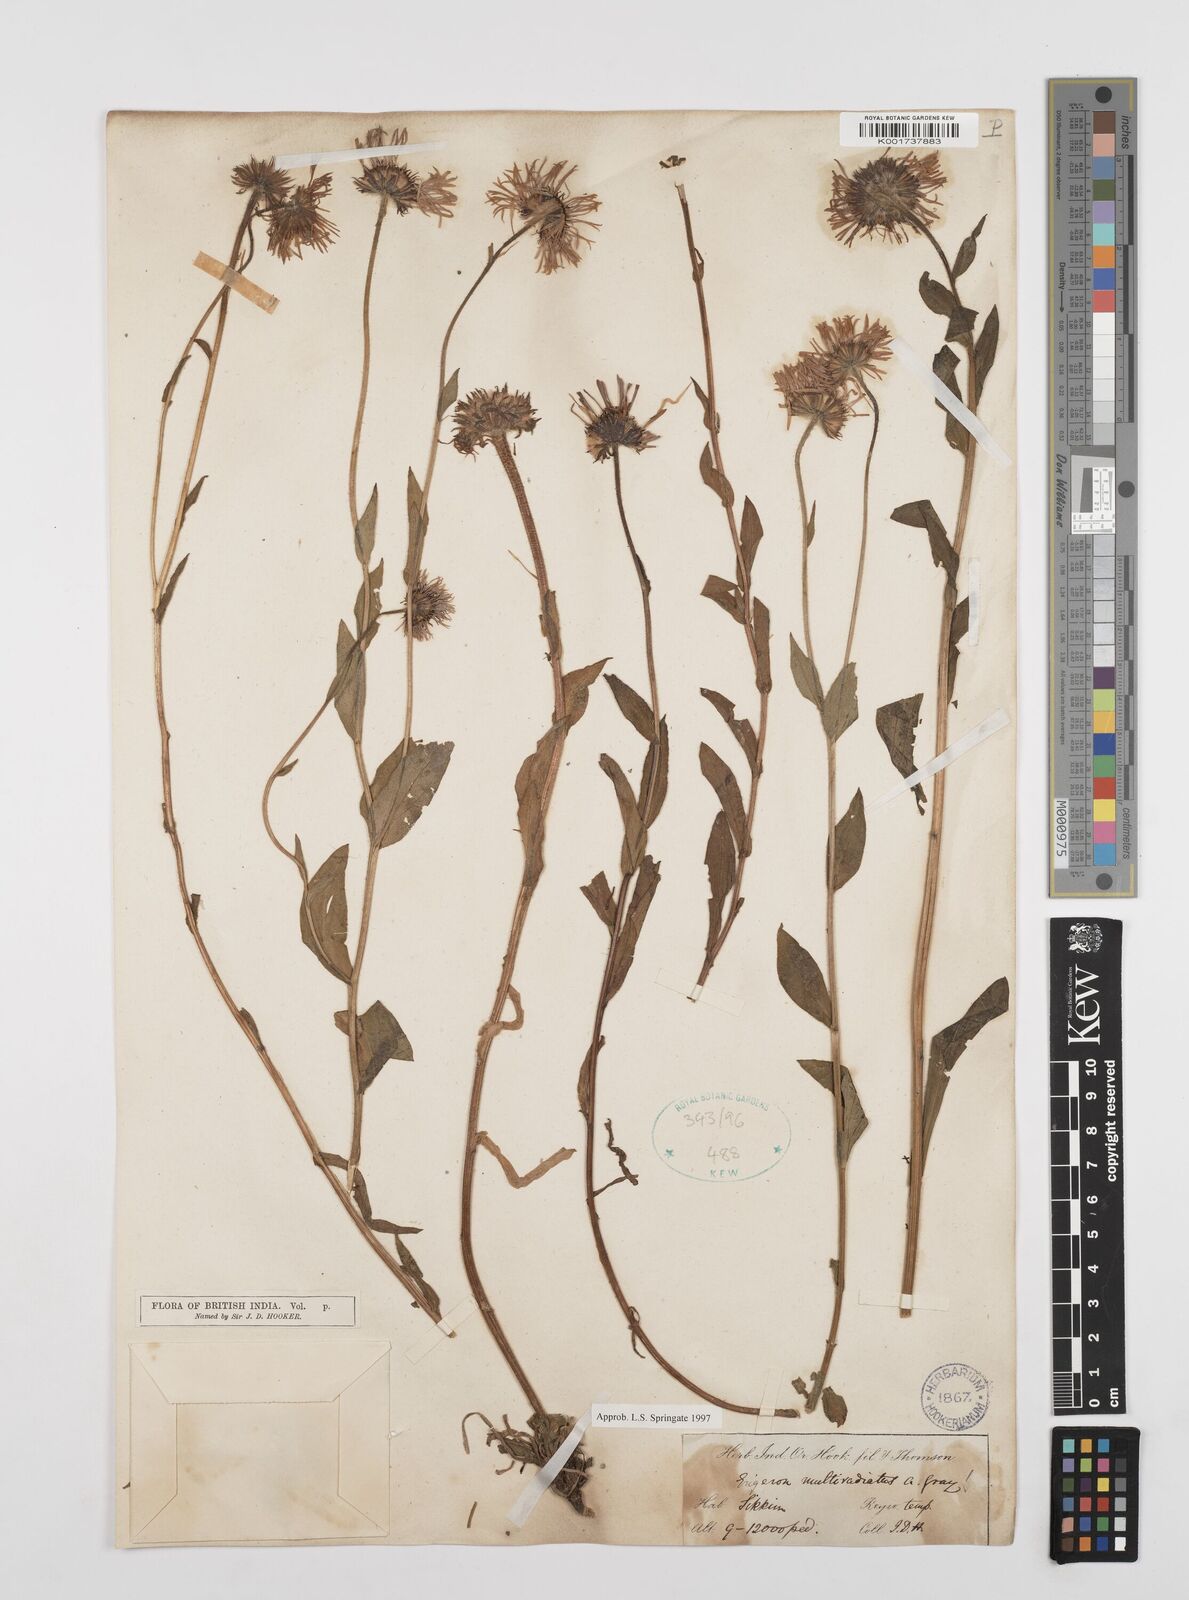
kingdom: Plantae
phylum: Tracheophyta
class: Magnoliopsida
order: Asterales
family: Asteraceae
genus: Erigeron
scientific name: Erigeron multiradiatus
